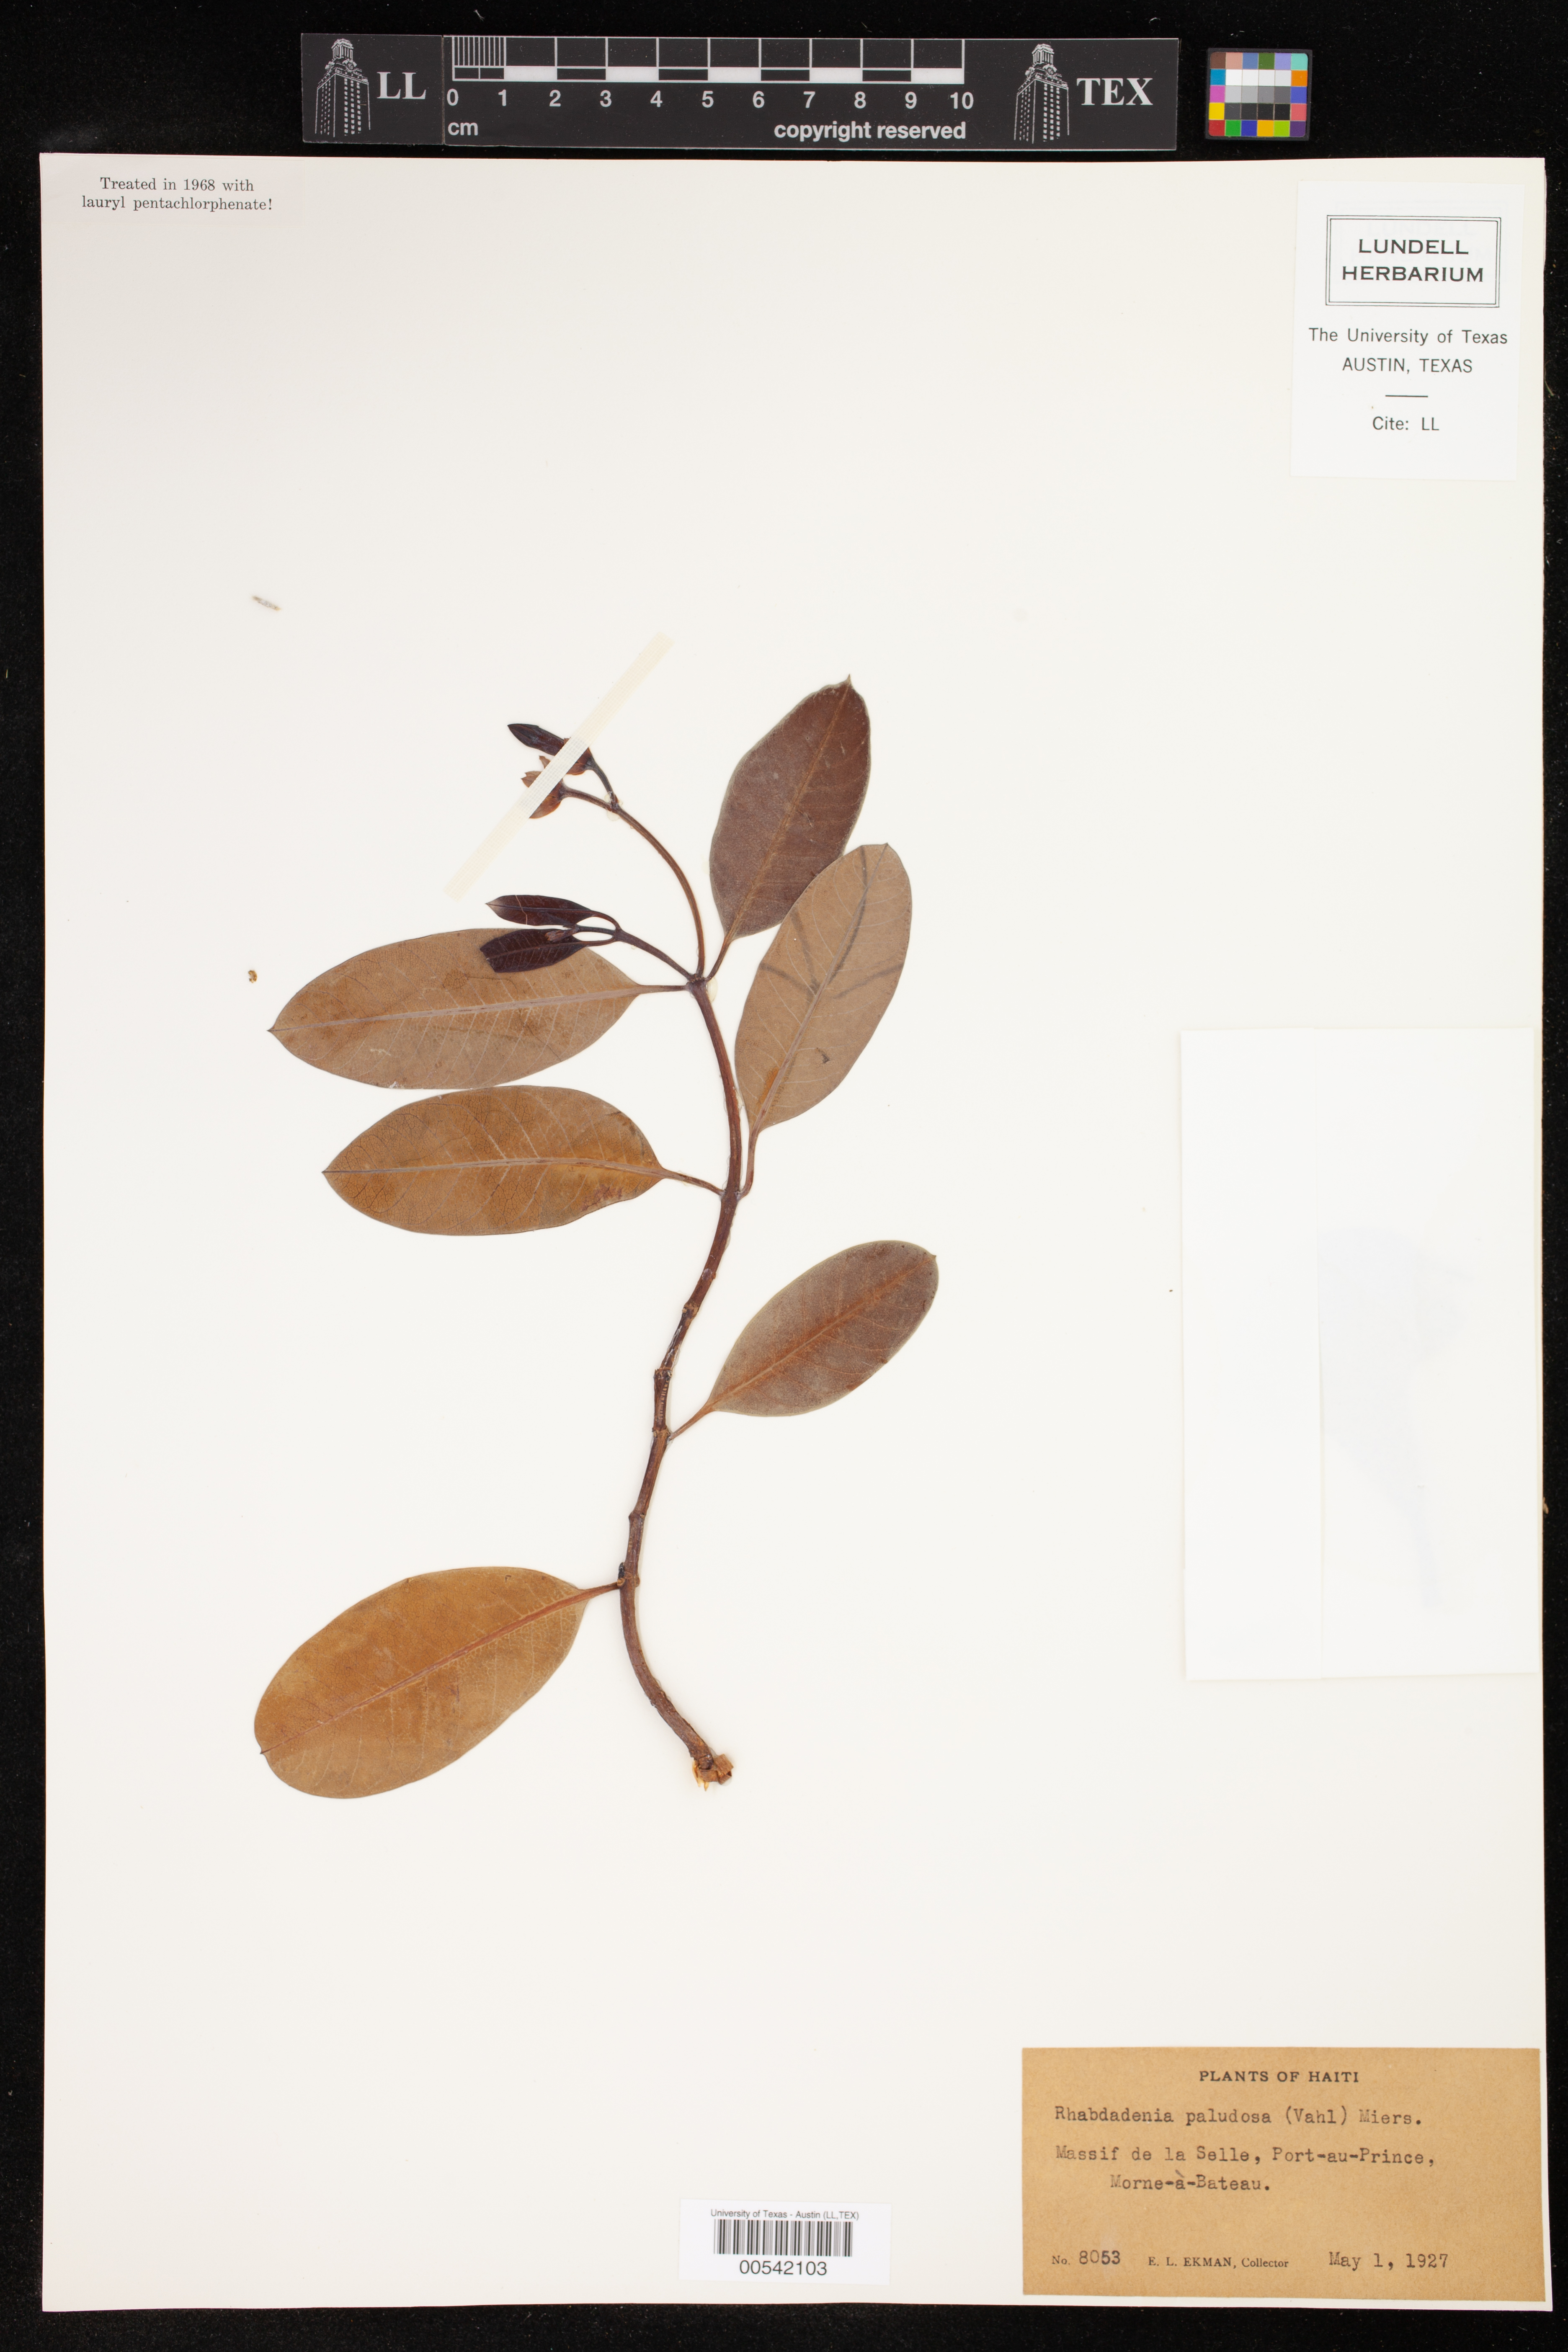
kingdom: Plantae
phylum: Tracheophyta
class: Magnoliopsida
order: Gentianales
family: Apocynaceae
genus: Rhabdadenia
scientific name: Rhabdadenia biflora
